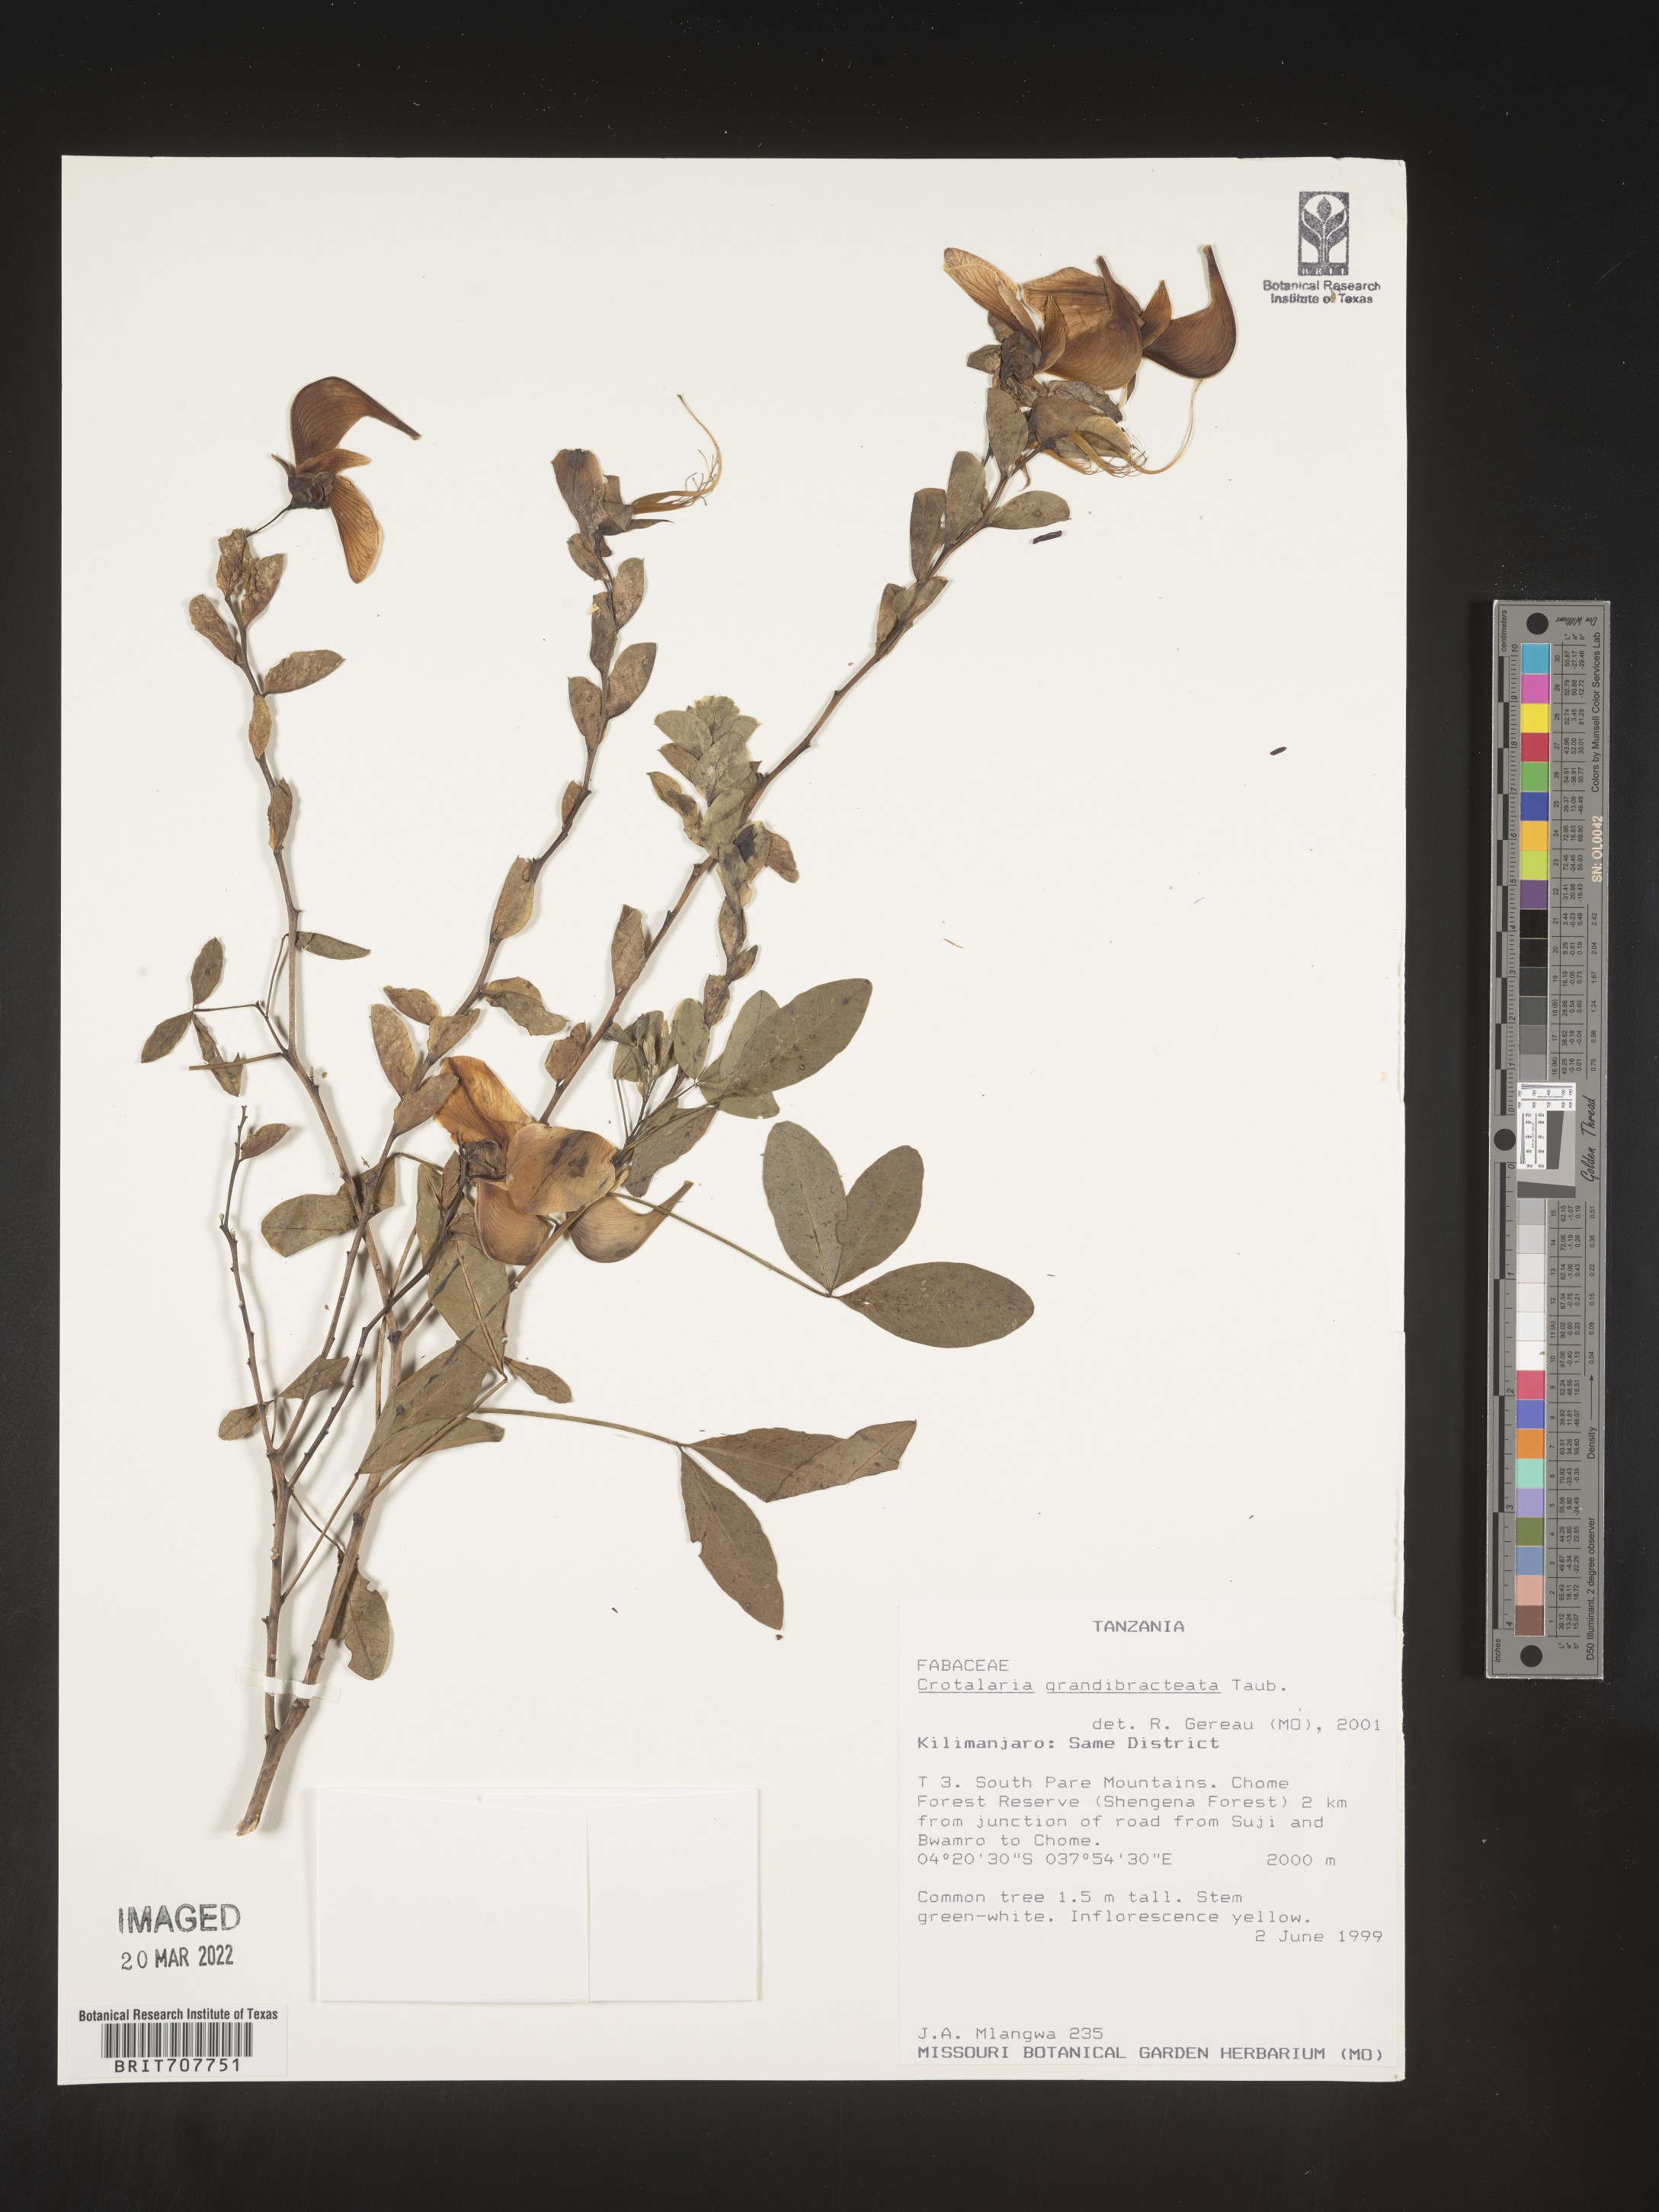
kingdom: Plantae
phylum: Tracheophyta
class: Magnoliopsida
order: Fabales
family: Fabaceae
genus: Crotalaria
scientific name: Crotalaria
